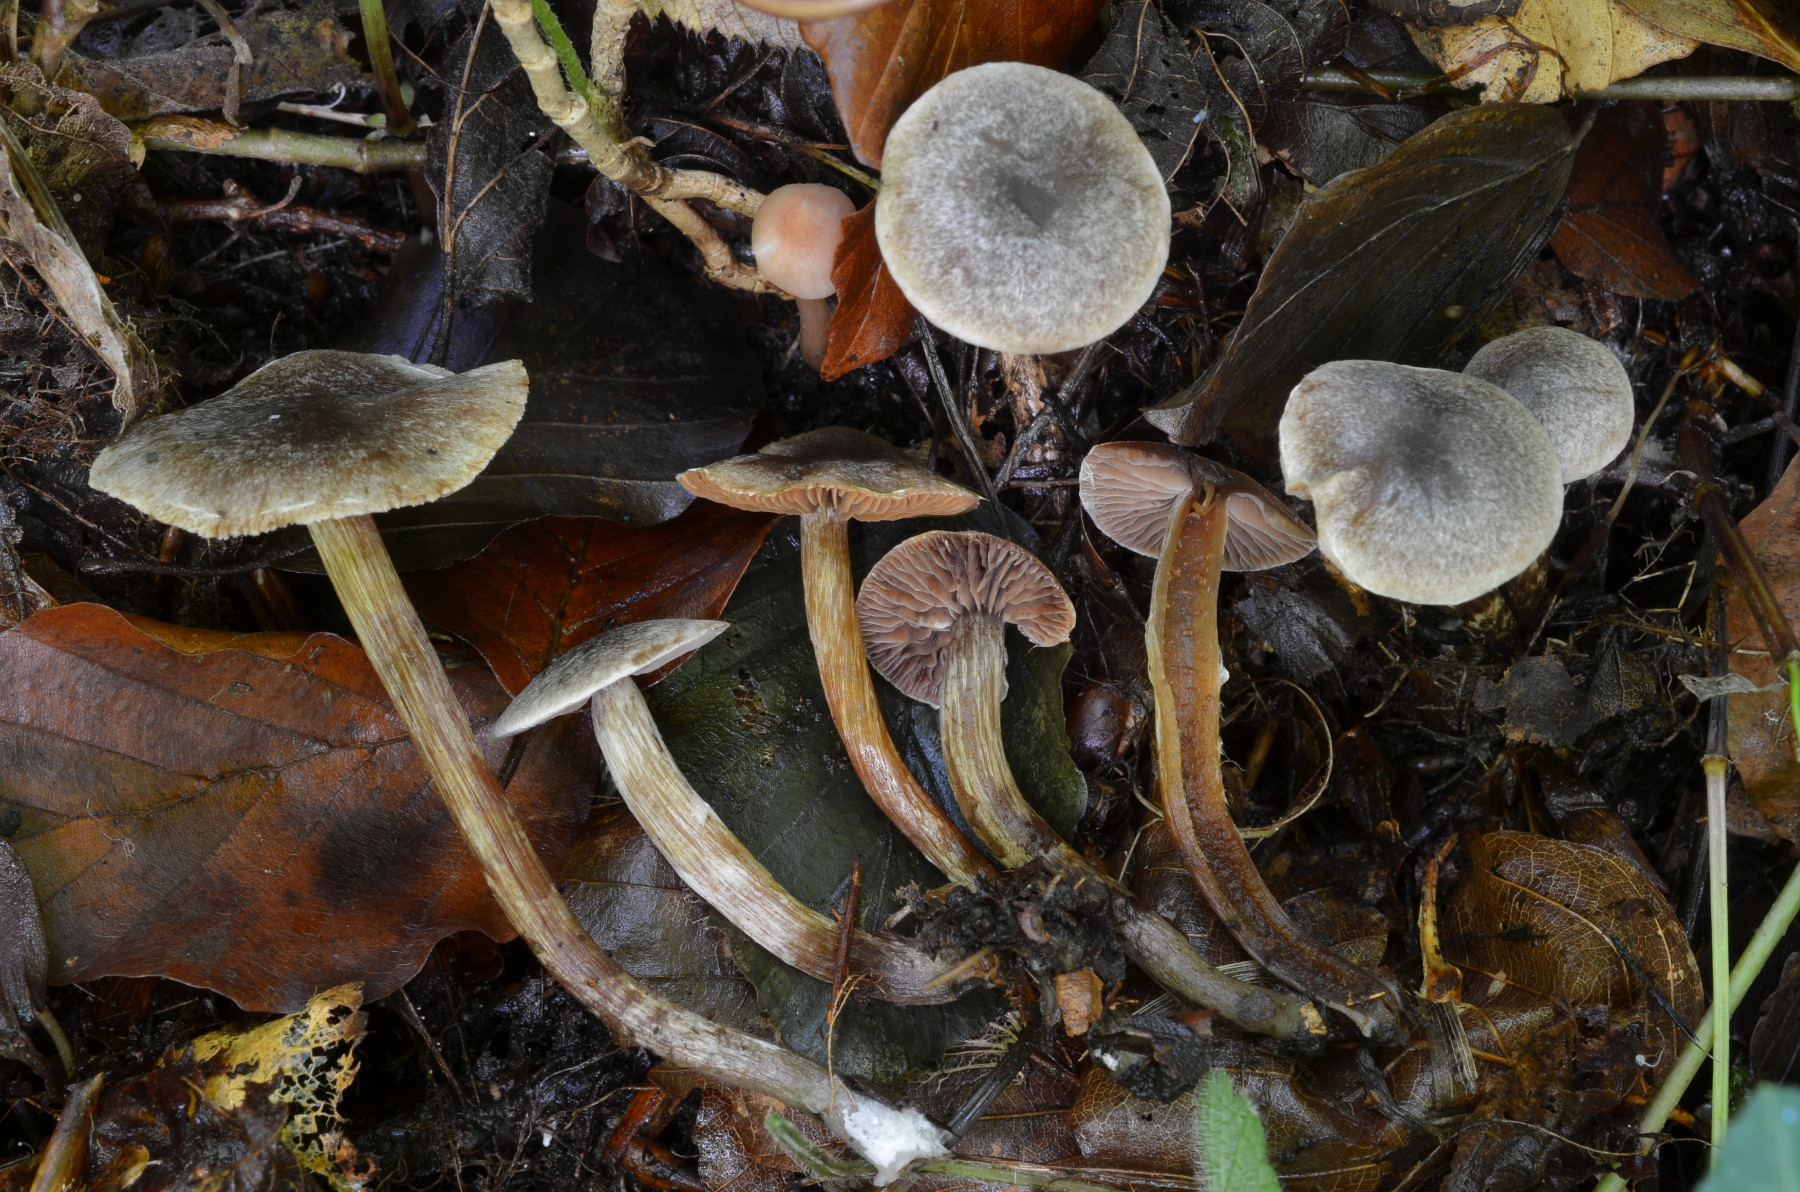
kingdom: Fungi
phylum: Basidiomycota
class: Agaricomycetes
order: Agaricales
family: Cortinariaceae
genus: Cortinarius
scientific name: Cortinarius desertorum
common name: skær slørhat
